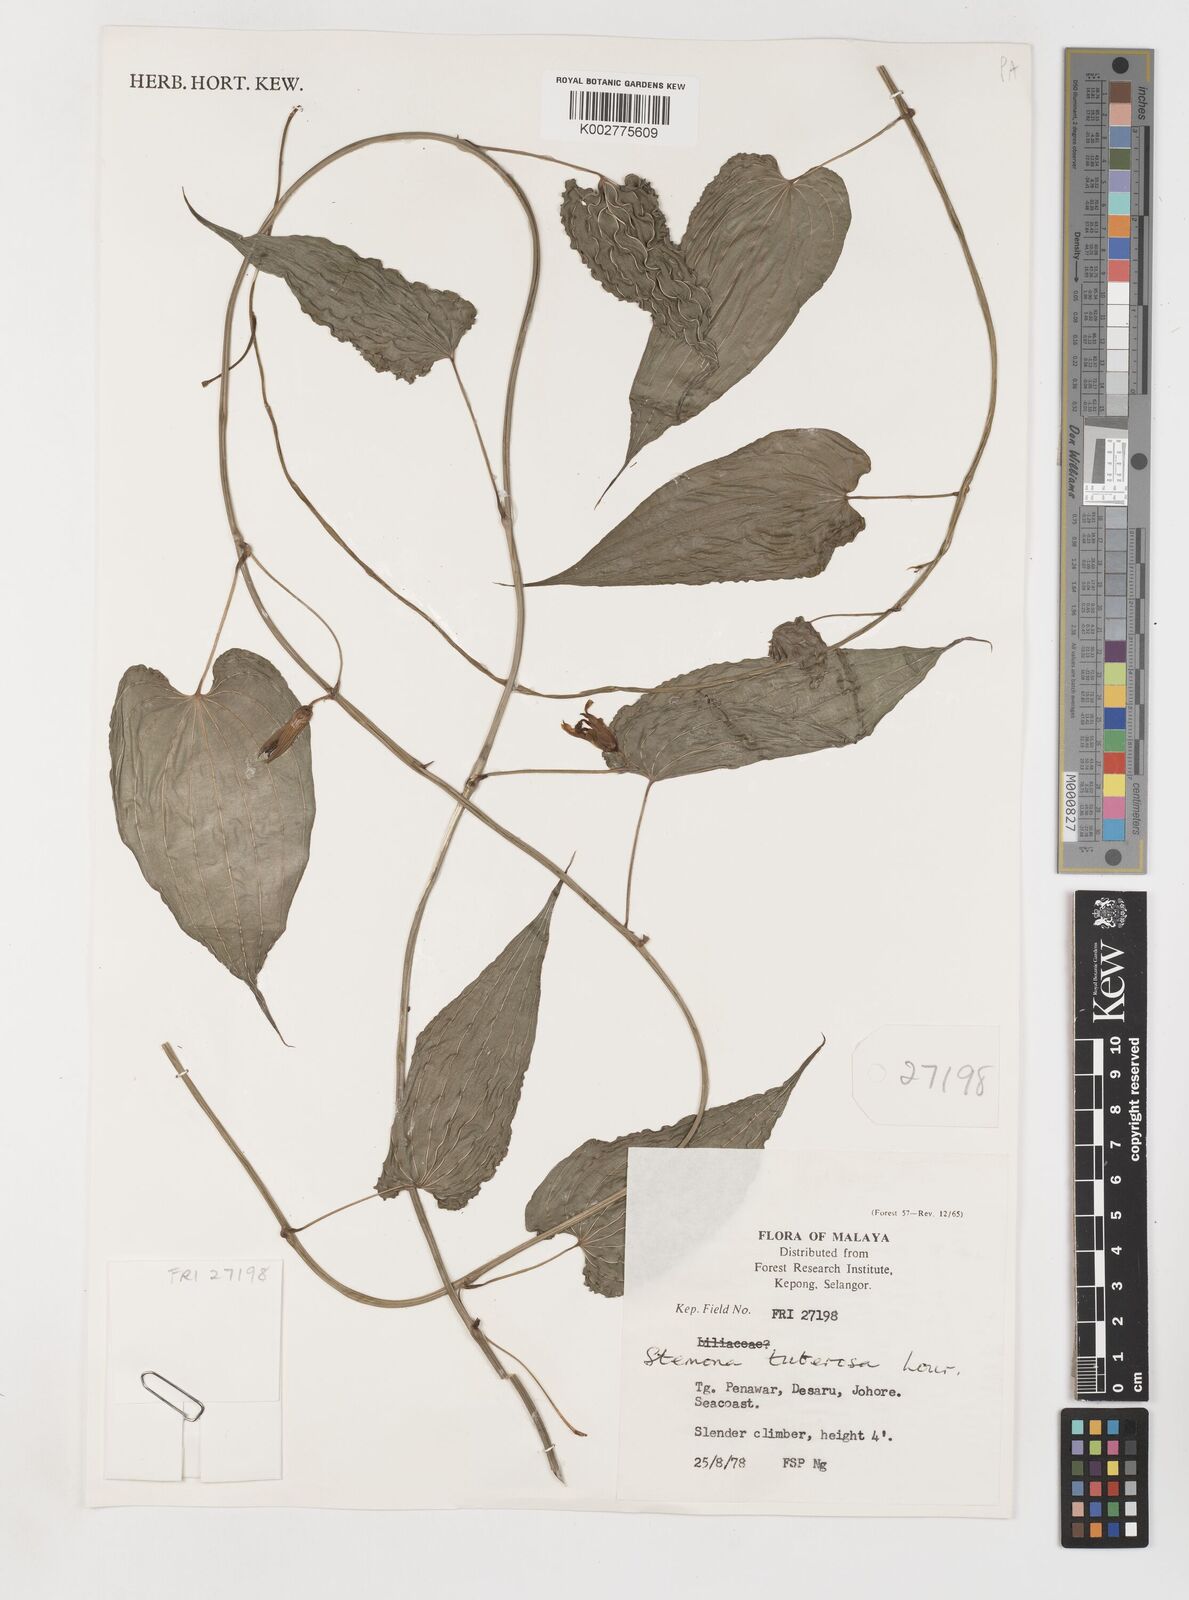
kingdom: Plantae
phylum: Tracheophyta
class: Liliopsida
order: Pandanales
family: Stemonaceae
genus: Stemona
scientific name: Stemona tuberosa
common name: Stemona
